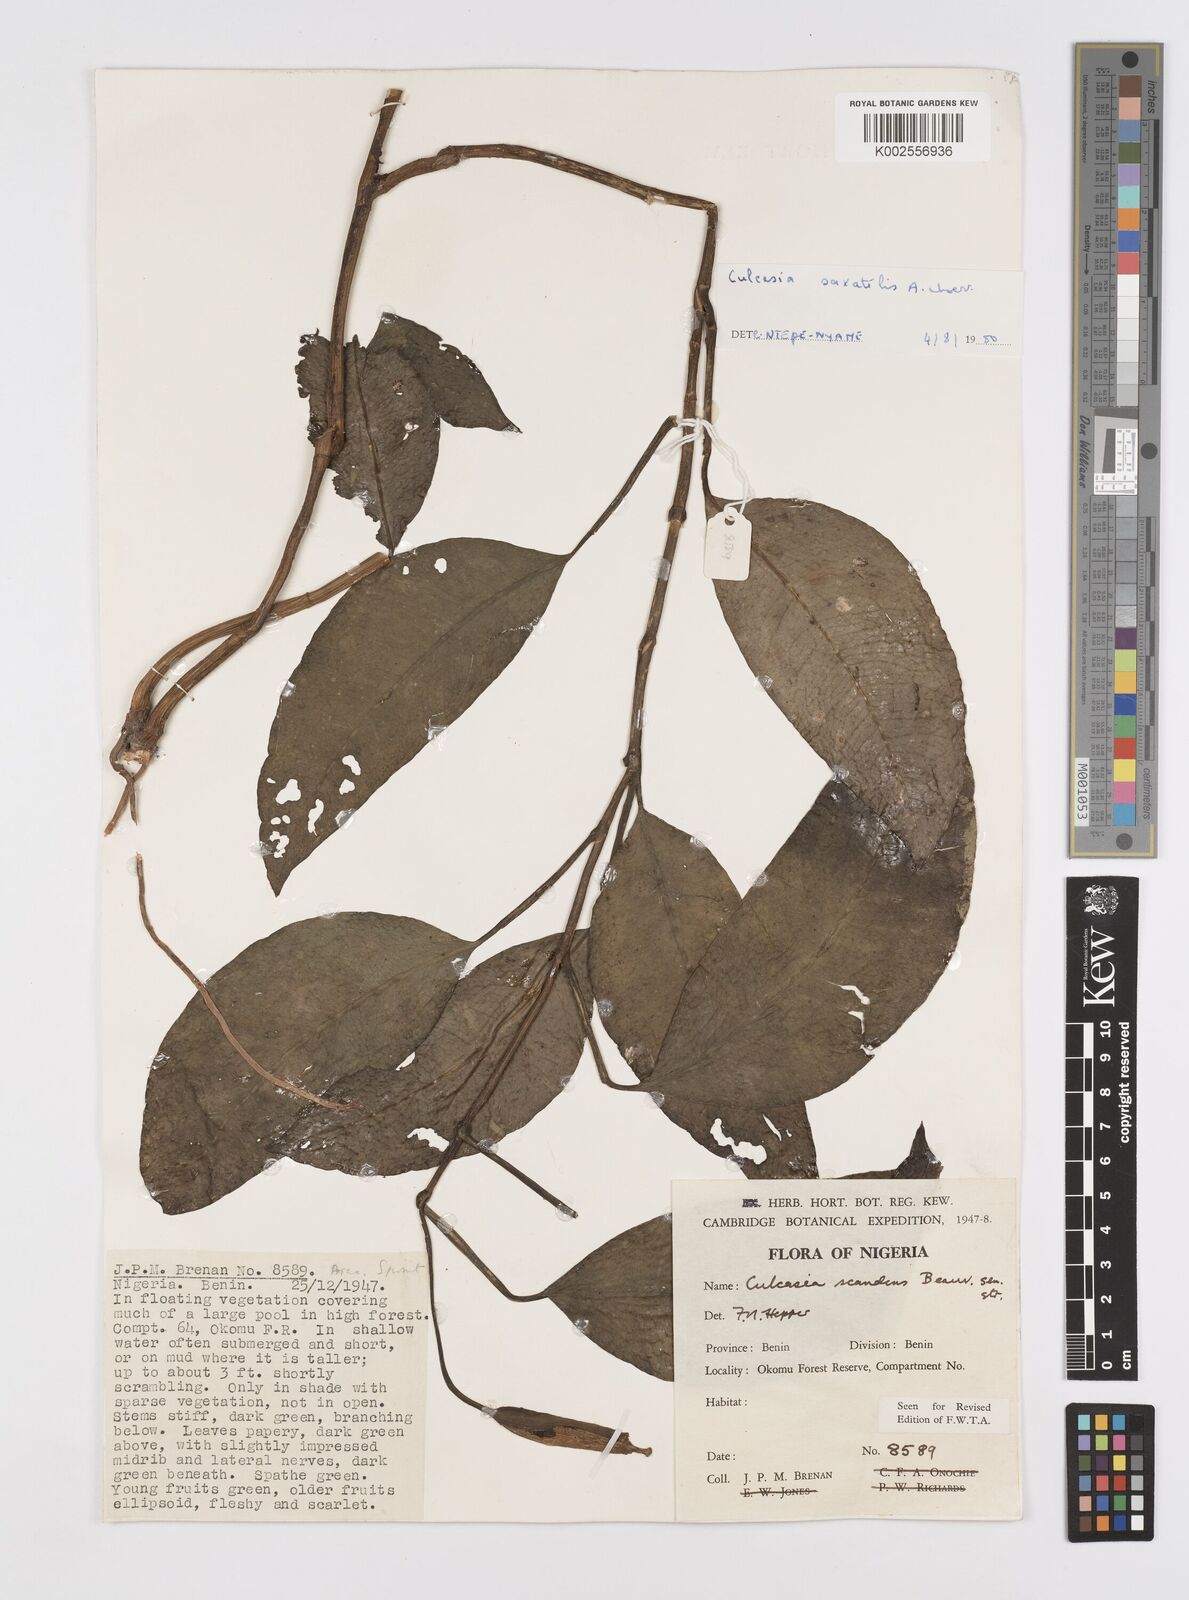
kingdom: Plantae
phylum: Tracheophyta
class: Liliopsida
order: Alismatales
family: Araceae
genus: Culcasia
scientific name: Culcasia scandens
